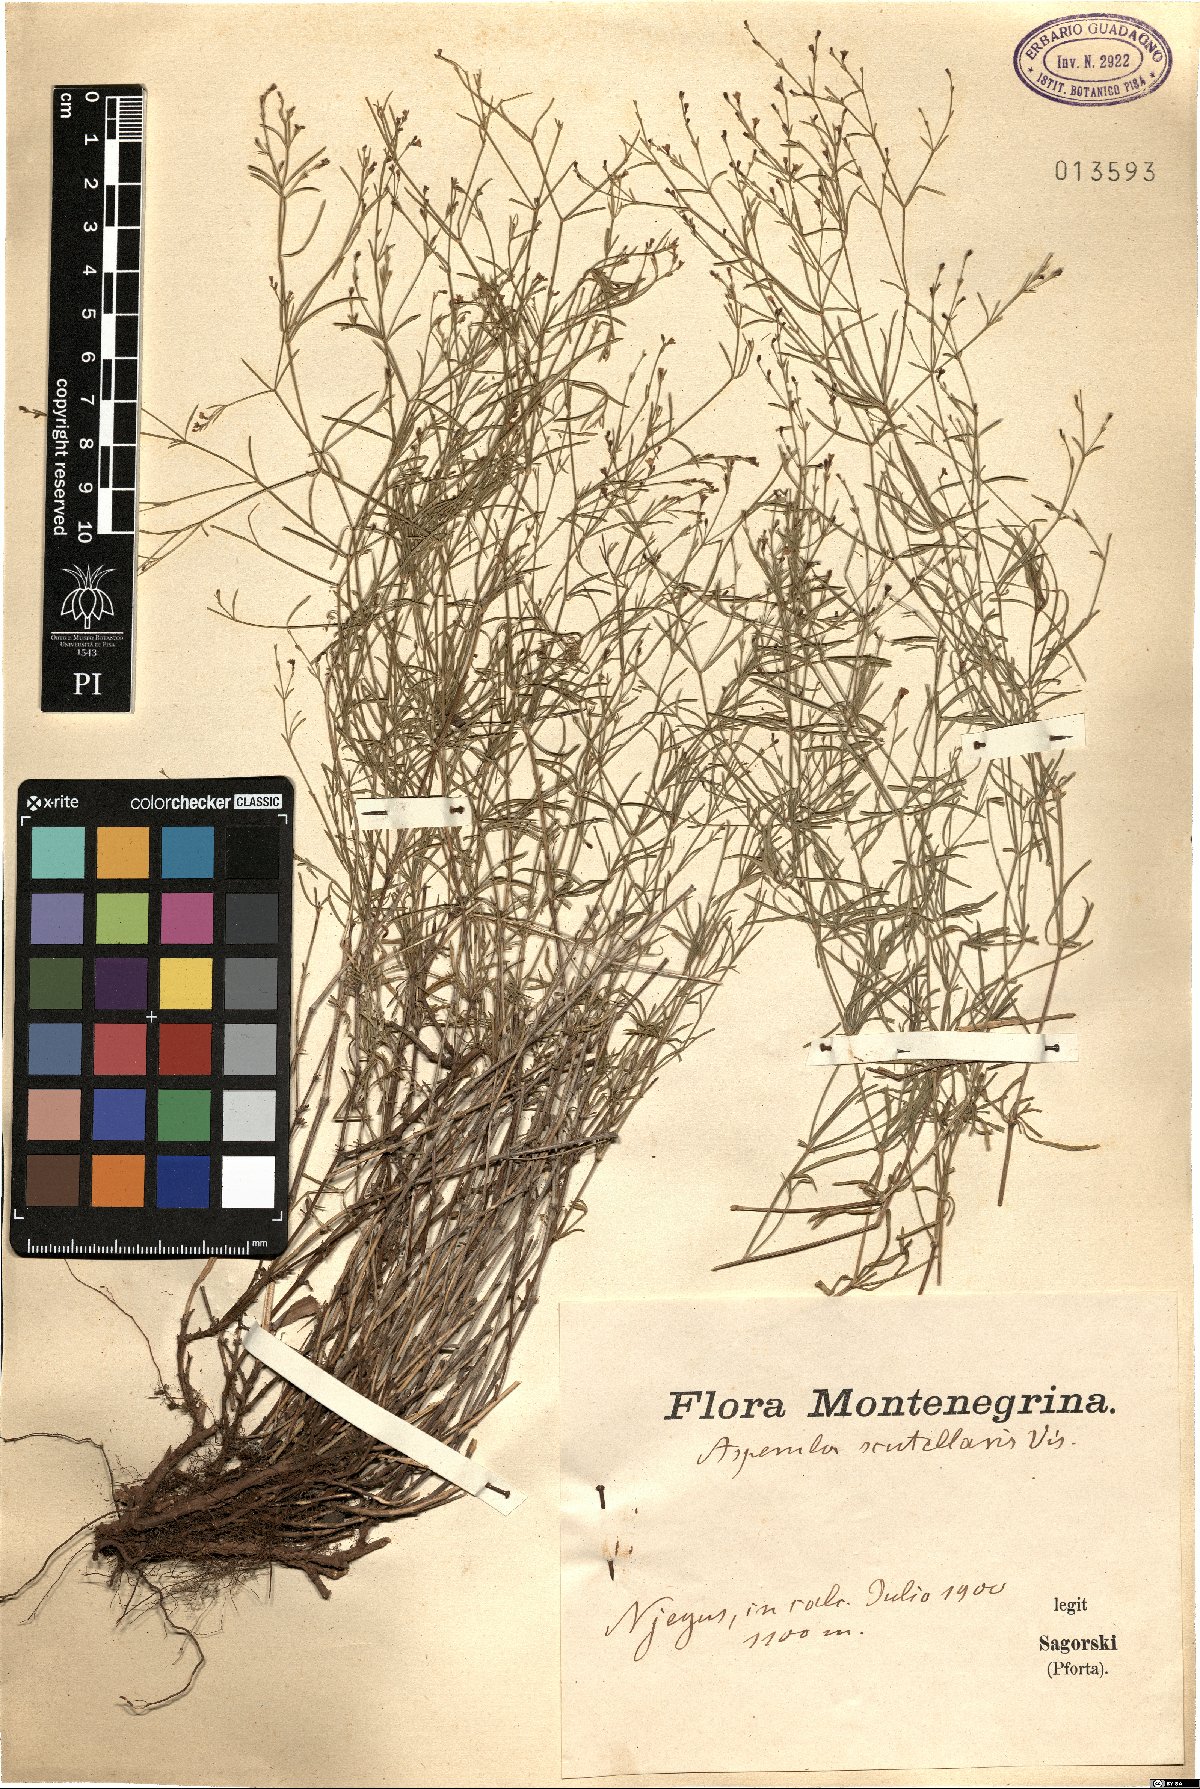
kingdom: Plantae
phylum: Tracheophyta
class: Magnoliopsida
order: Gentianales
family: Rubiaceae
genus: Thliphthisa
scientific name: Thliphthisa rupestris
